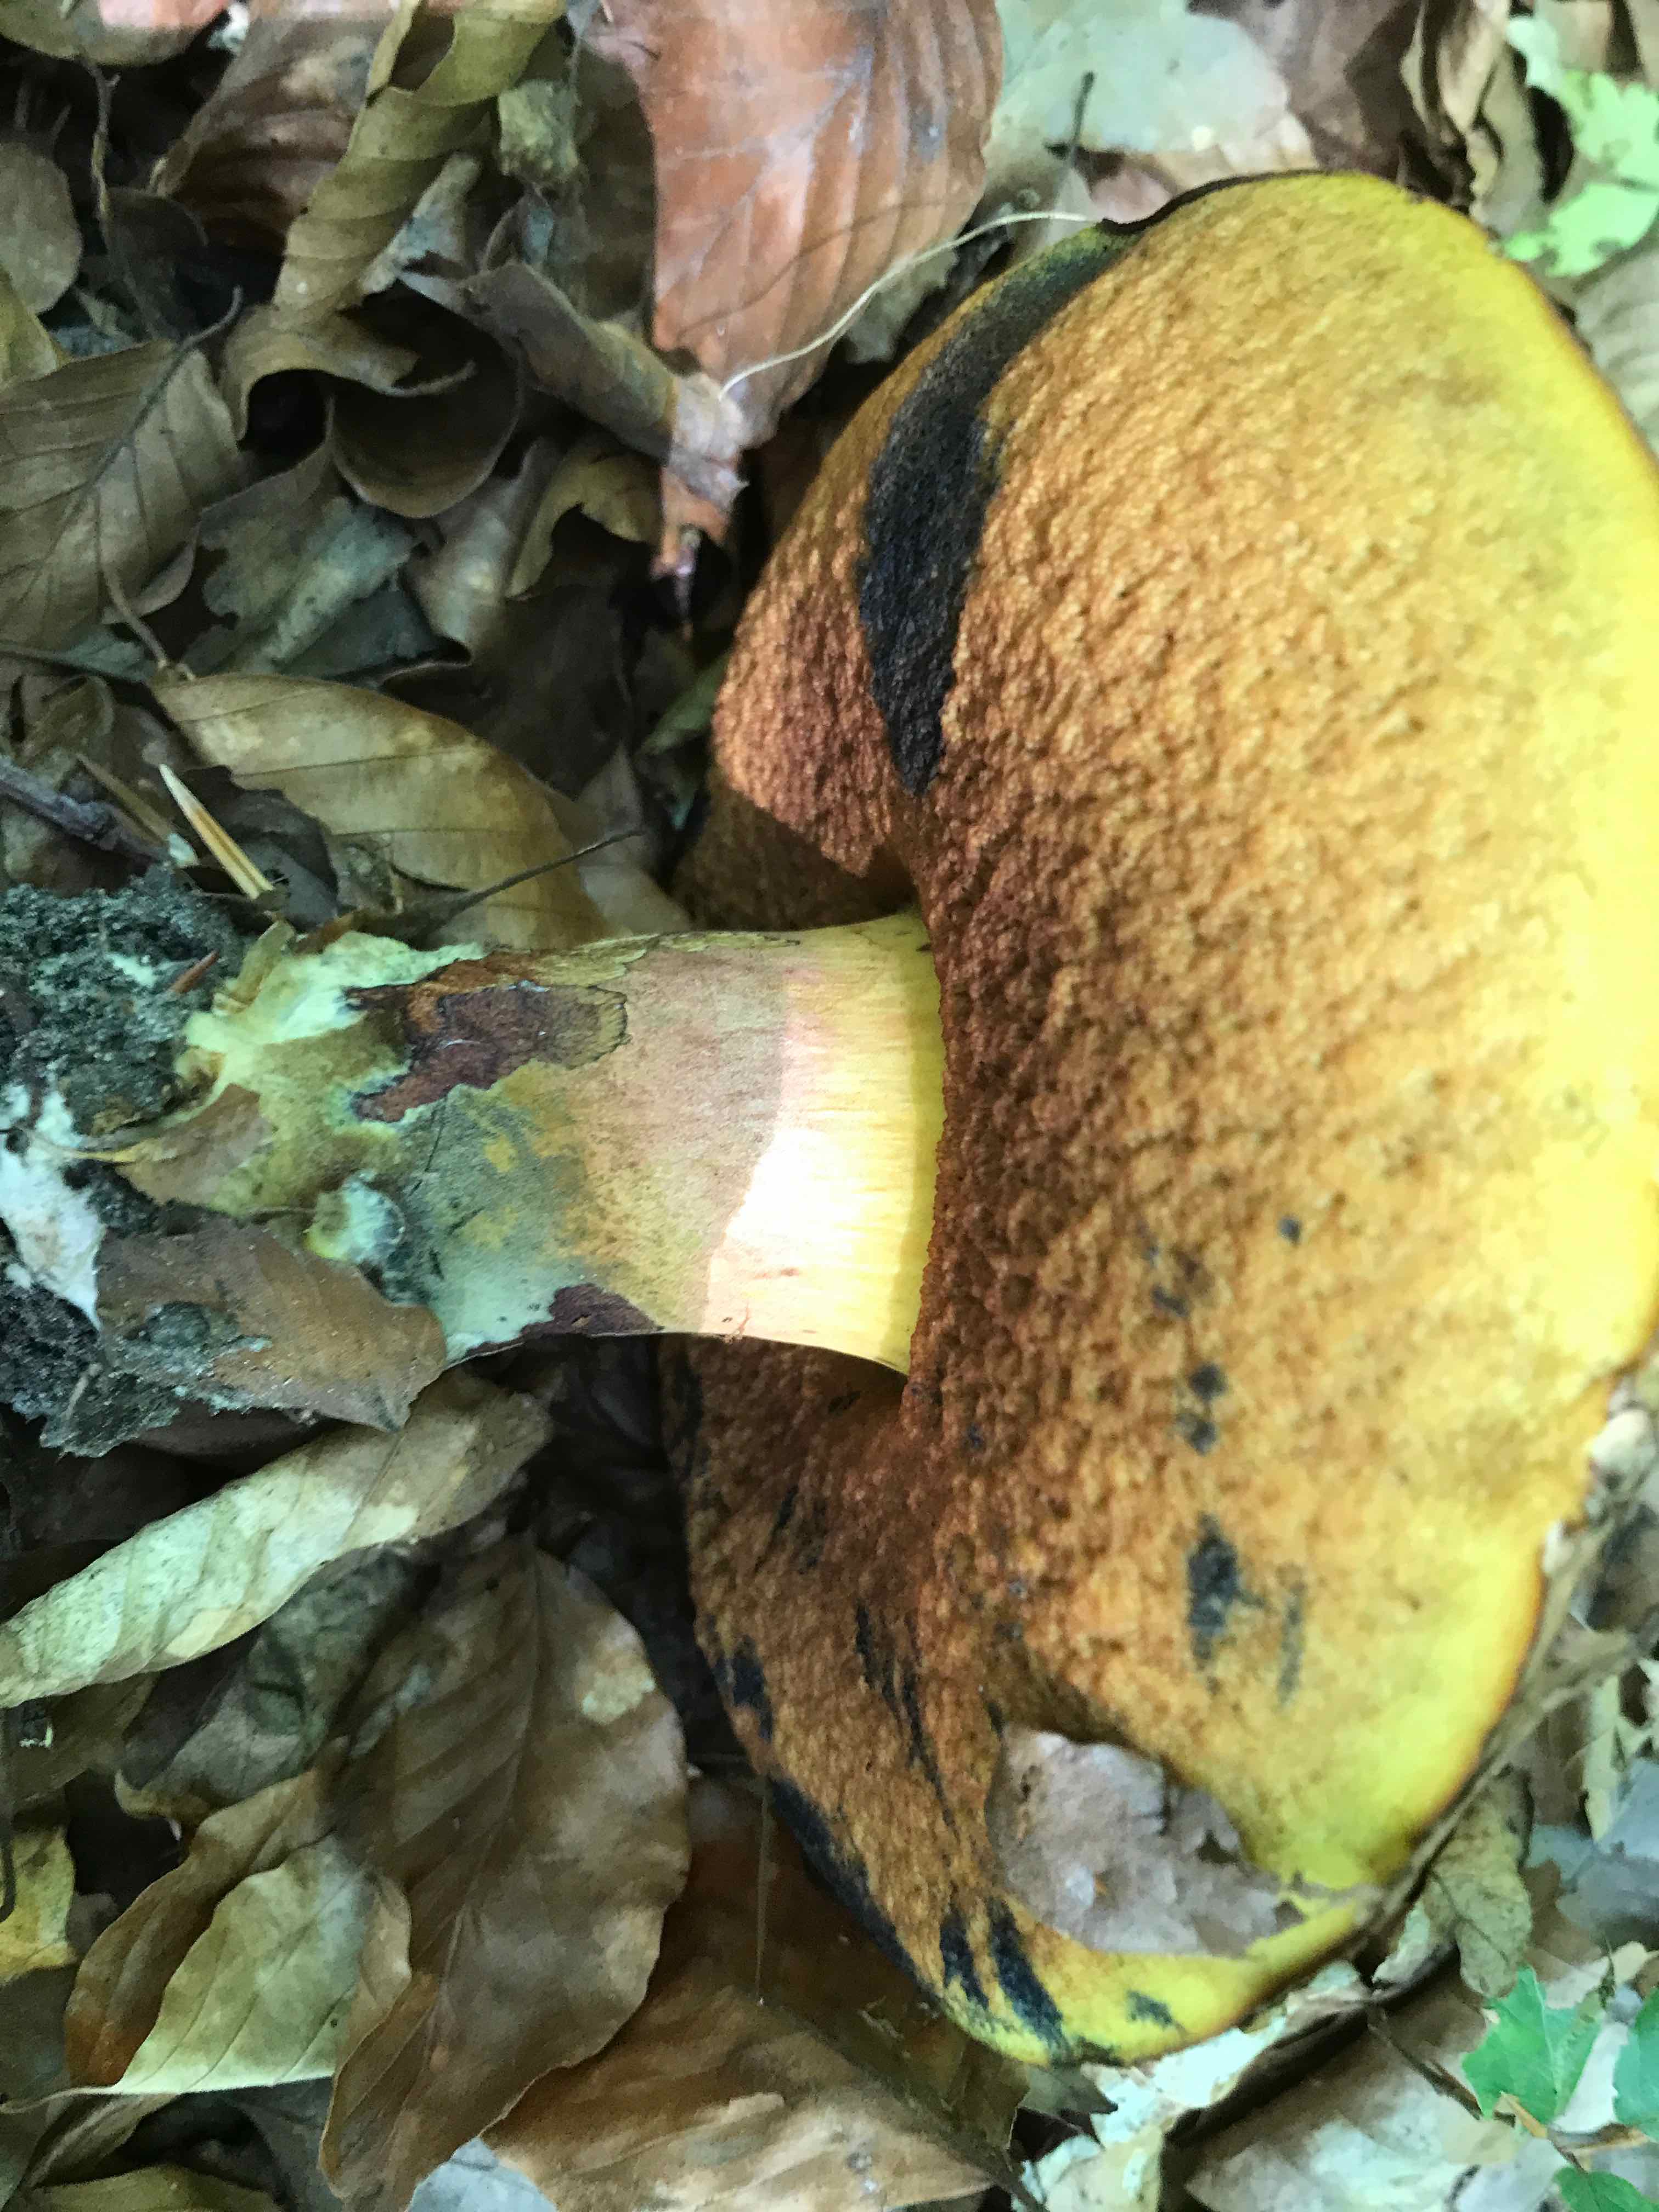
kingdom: Fungi
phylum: Basidiomycota
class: Agaricomycetes
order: Boletales
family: Boletaceae
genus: Neoboletus
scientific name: Neoboletus erythropus
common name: punktstokket indigorørhat
